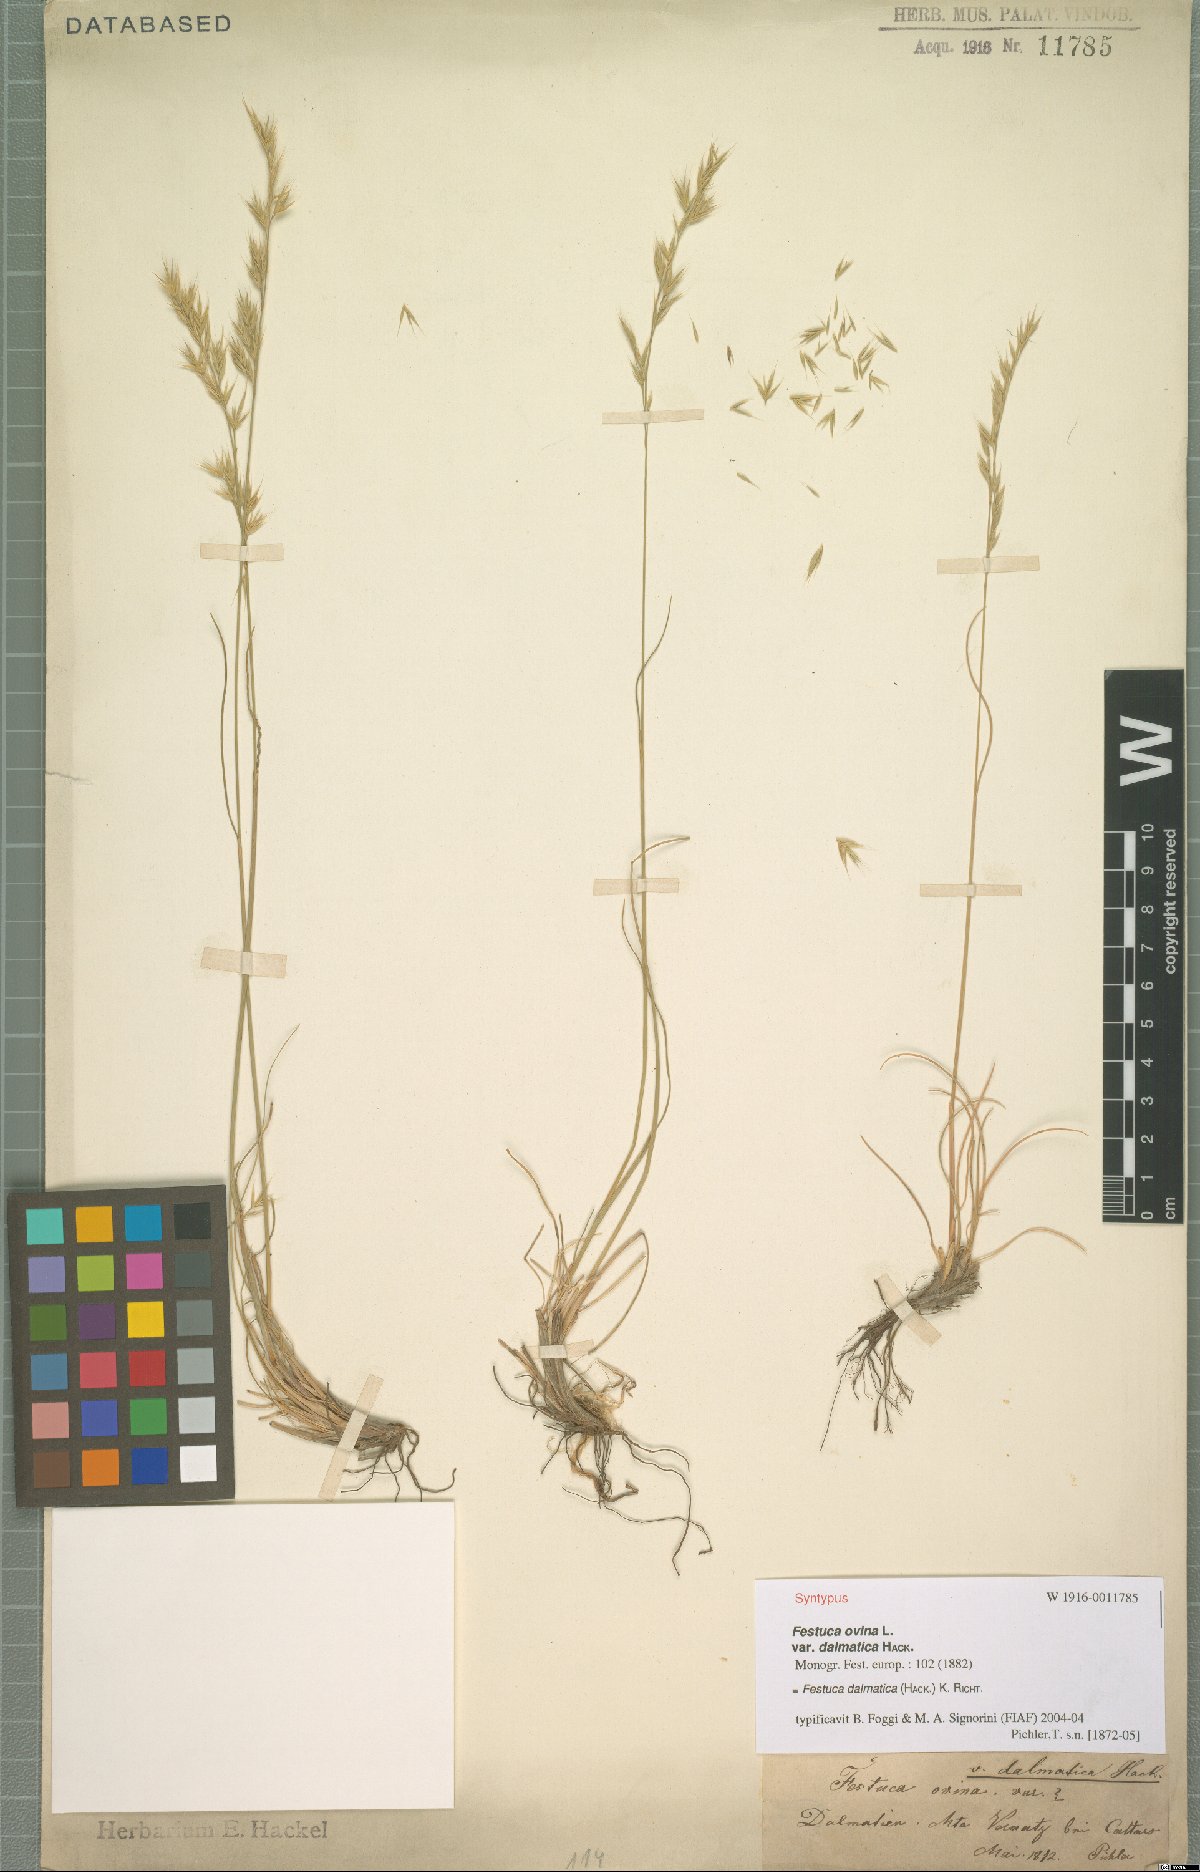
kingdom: Plantae
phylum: Tracheophyta
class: Liliopsida
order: Poales
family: Poaceae
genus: Festuca
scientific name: Festuca dalmatica
